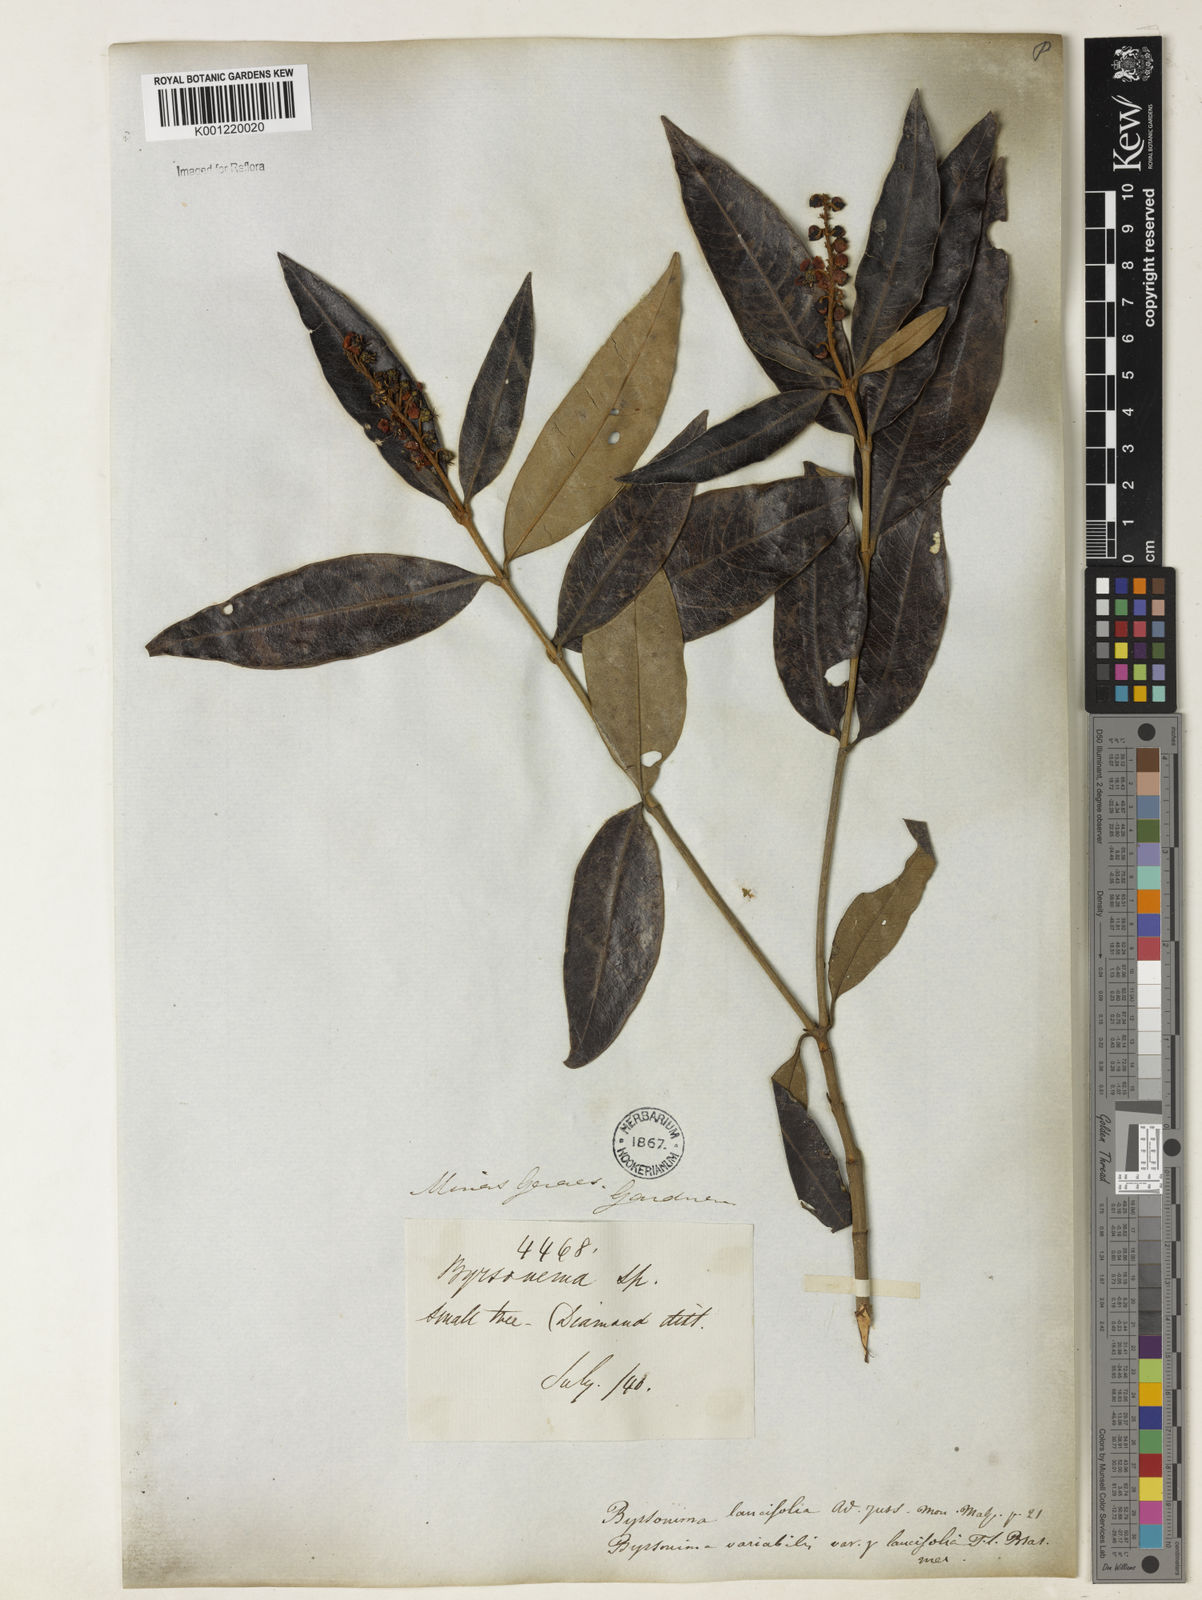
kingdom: Plantae
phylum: Tracheophyta
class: Magnoliopsida
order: Malpighiales
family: Malpighiaceae
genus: Byrsonima
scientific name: Byrsonima lancifolia
